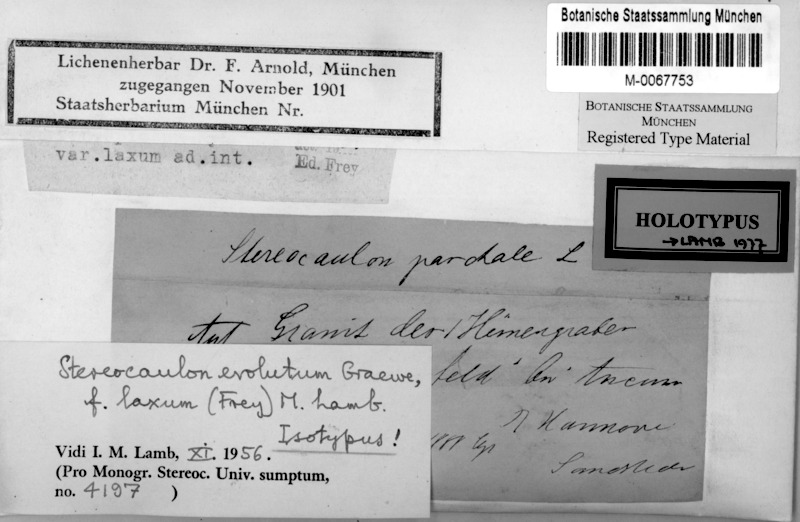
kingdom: Fungi
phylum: Ascomycota
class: Lecanoromycetes
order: Lecanorales
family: Stereocaulaceae
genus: Stereocaulon
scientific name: Stereocaulon evolutum
